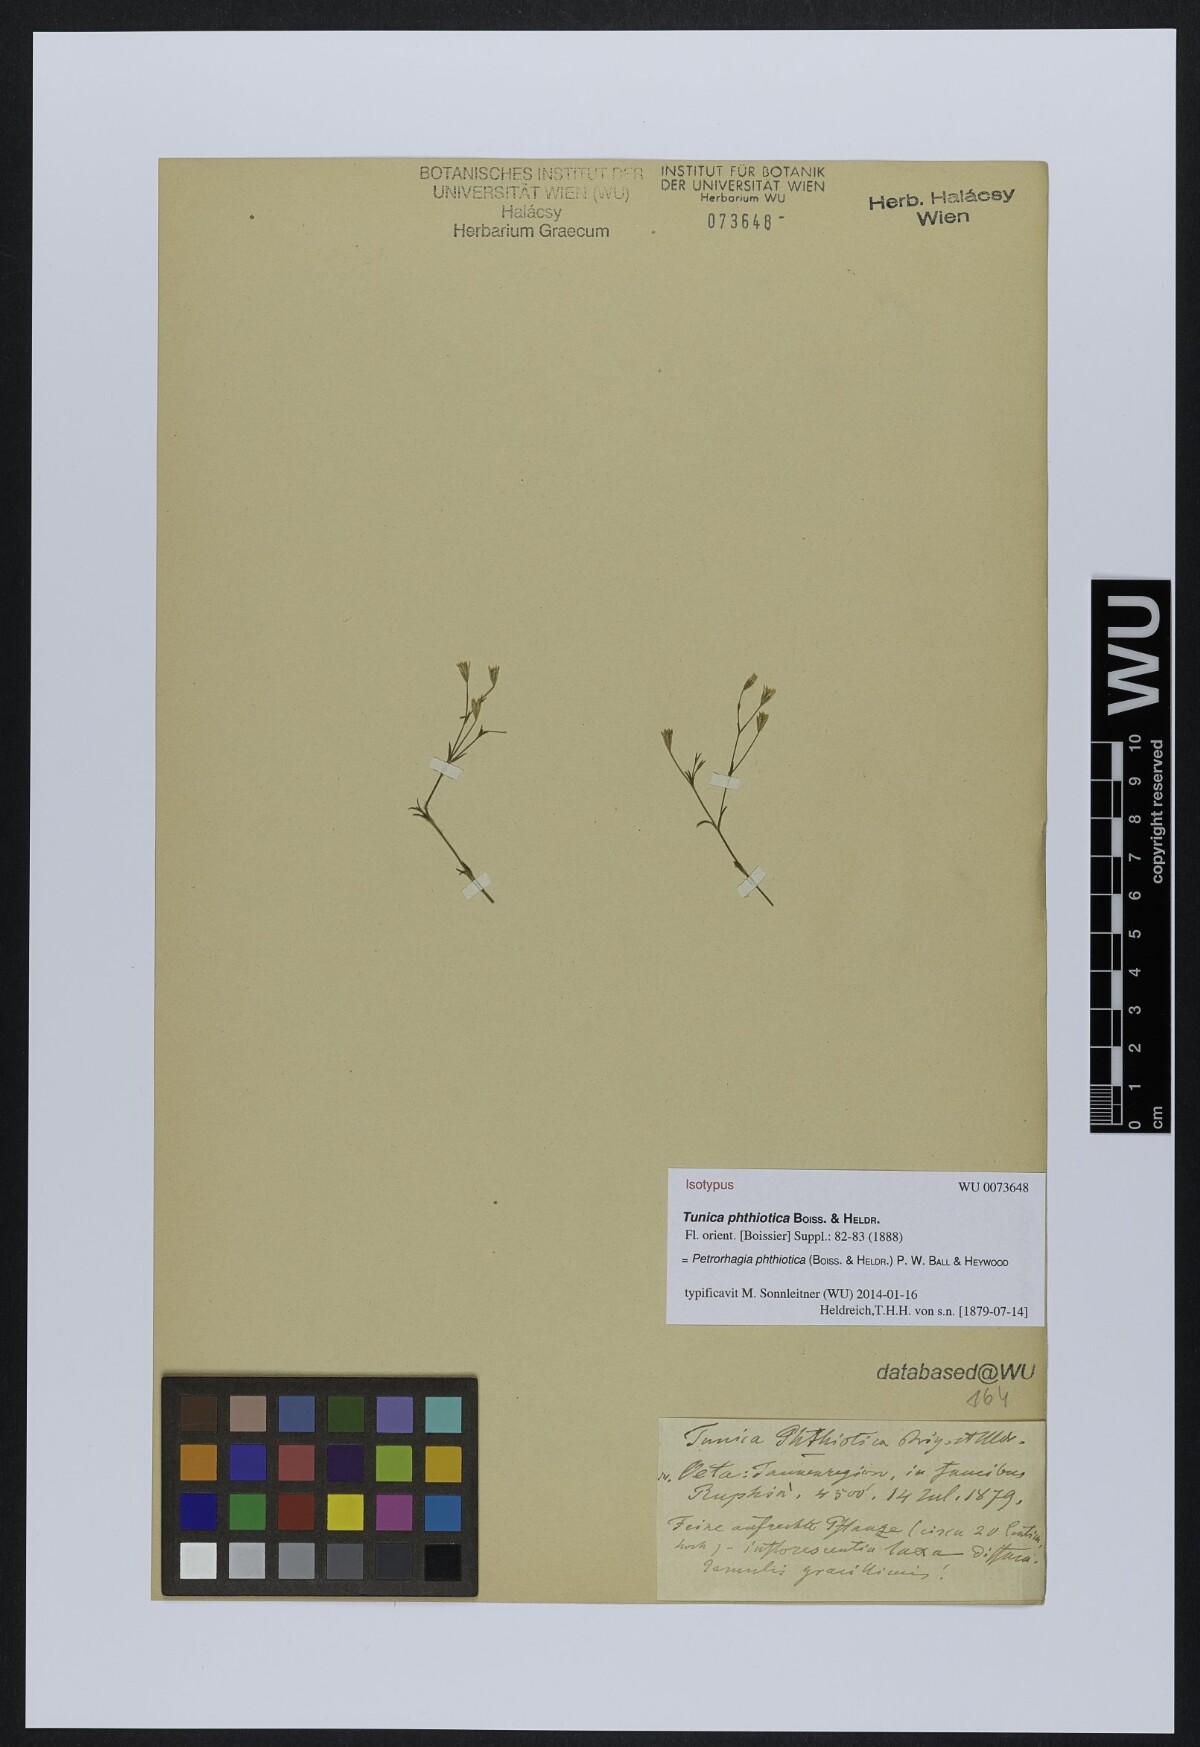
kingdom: Plantae
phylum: Tracheophyta
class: Magnoliopsida
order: Caryophyllales
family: Caryophyllaceae
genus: Petrorhagia
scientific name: Petrorhagia phthiotica
